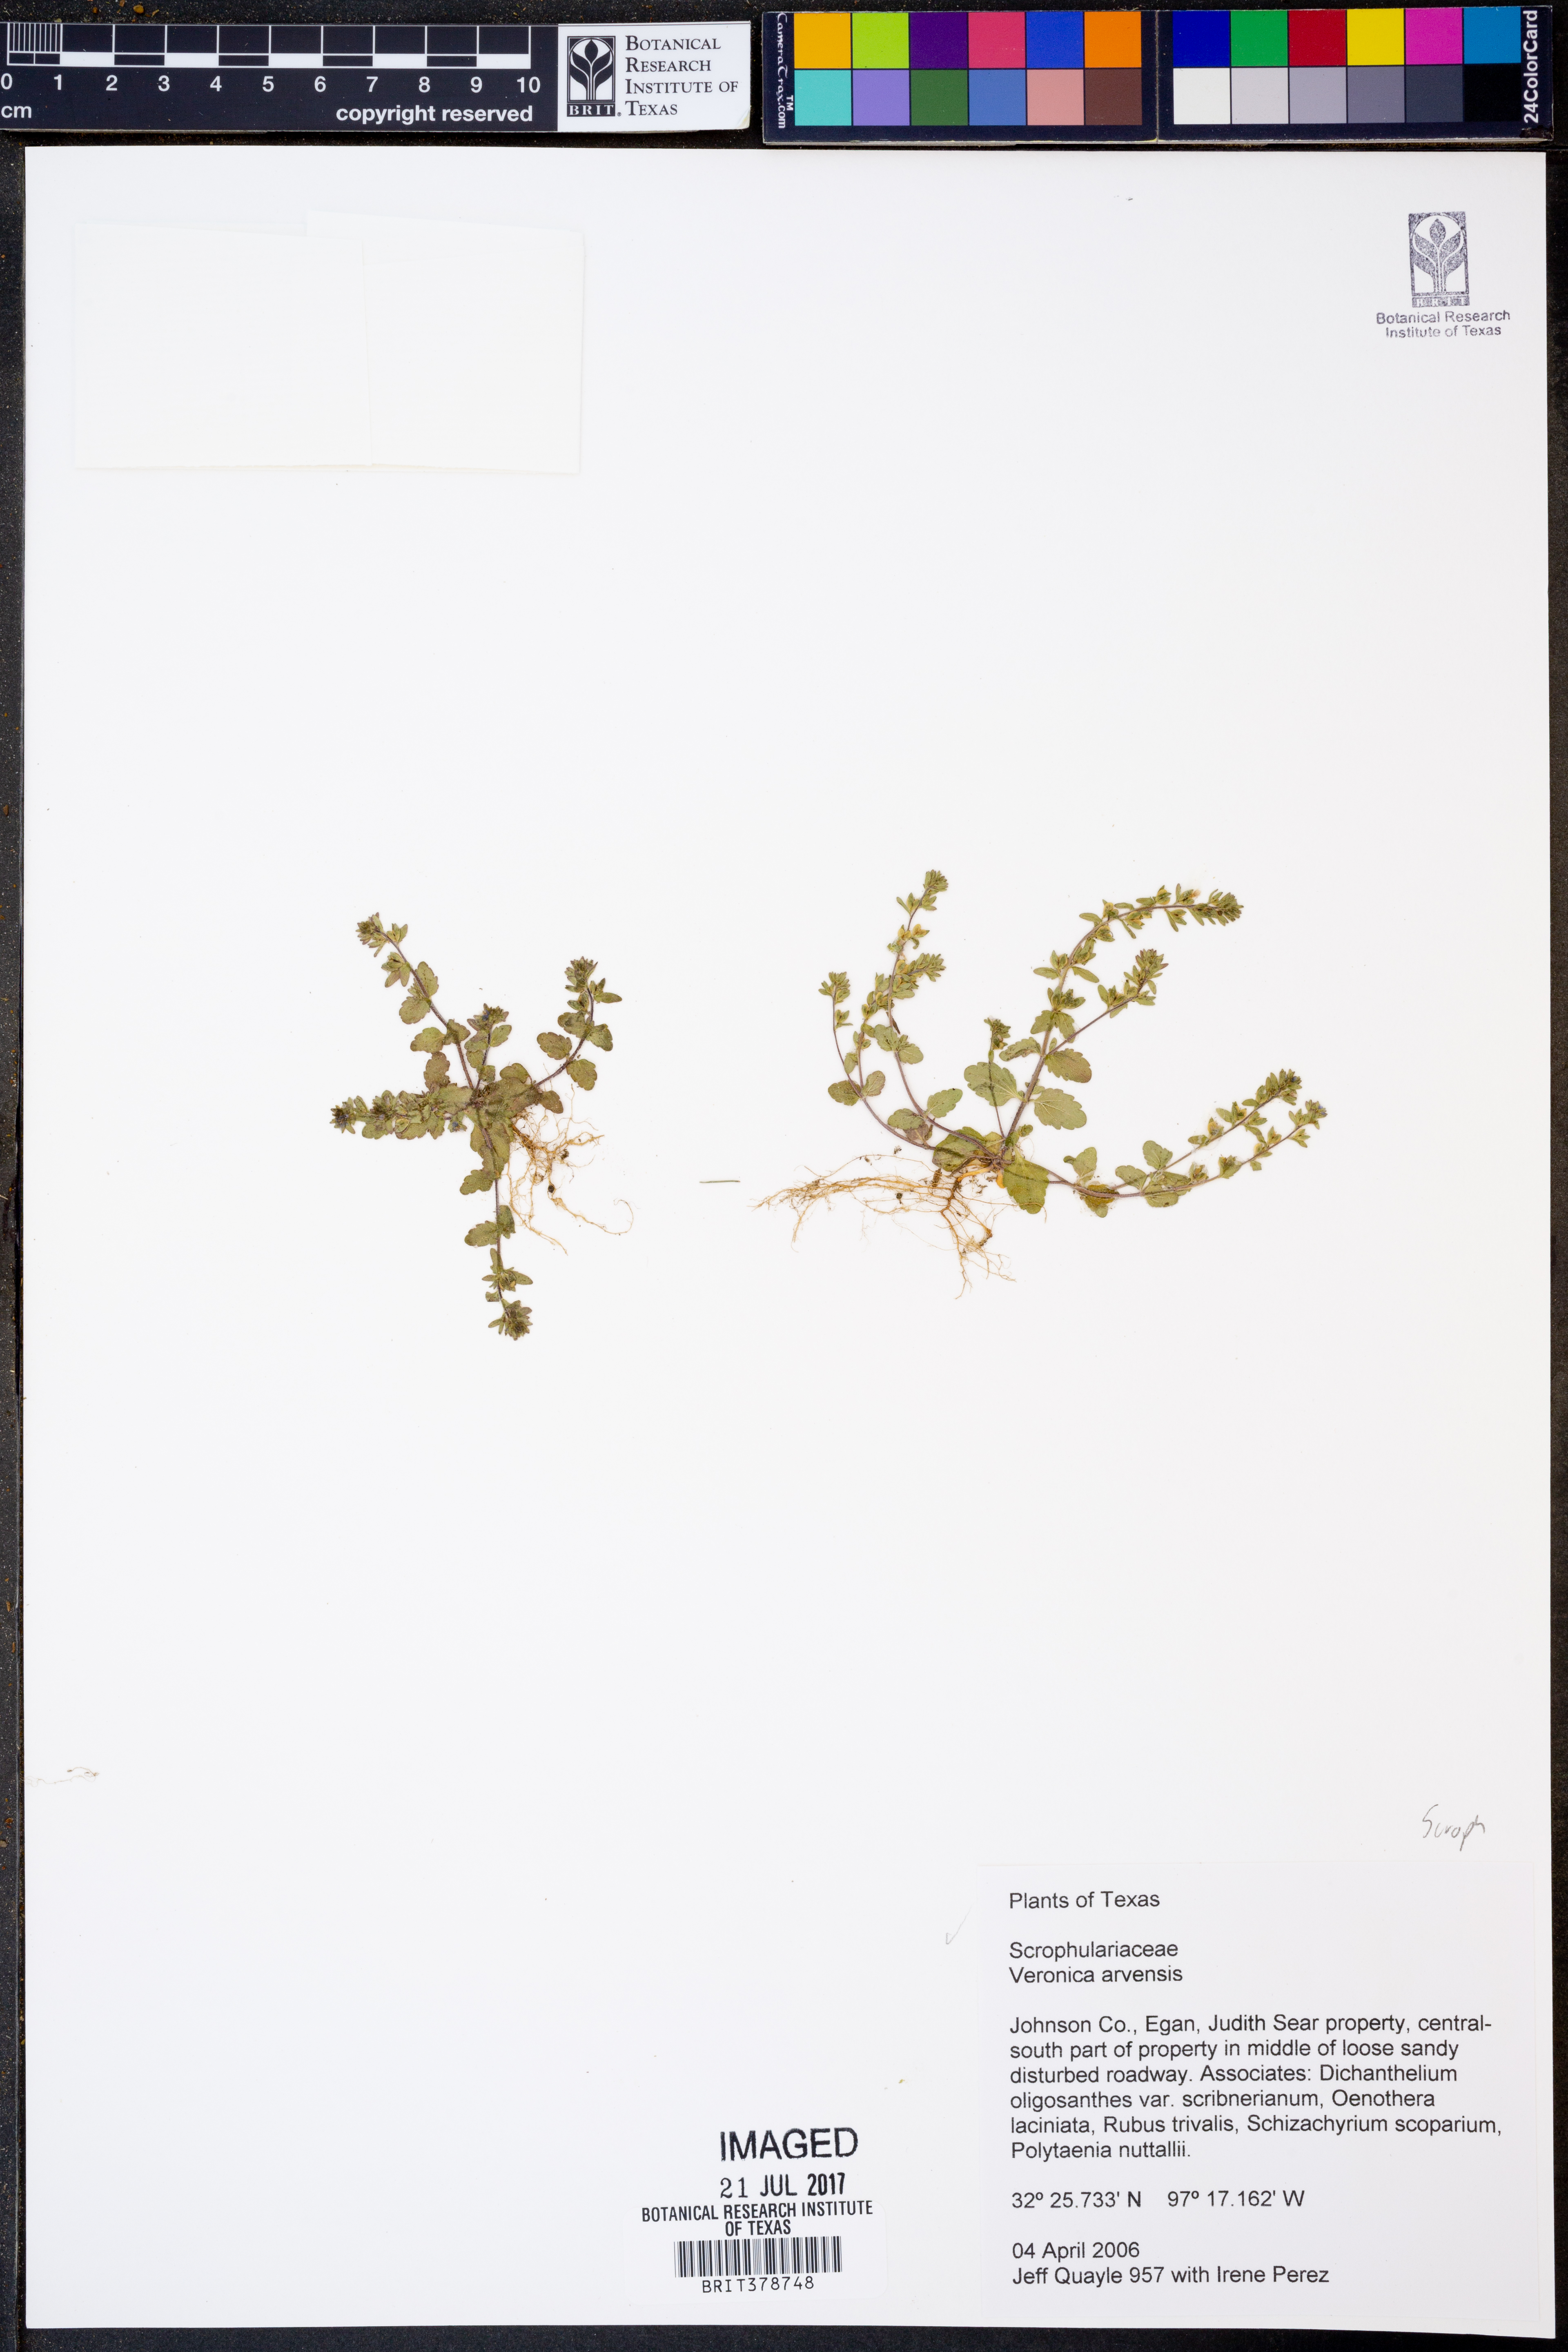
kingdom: Plantae
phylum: Tracheophyta
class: Magnoliopsida
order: Lamiales
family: Plantaginaceae
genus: Veronica
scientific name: Veronica arvensis
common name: Corn speedwell
